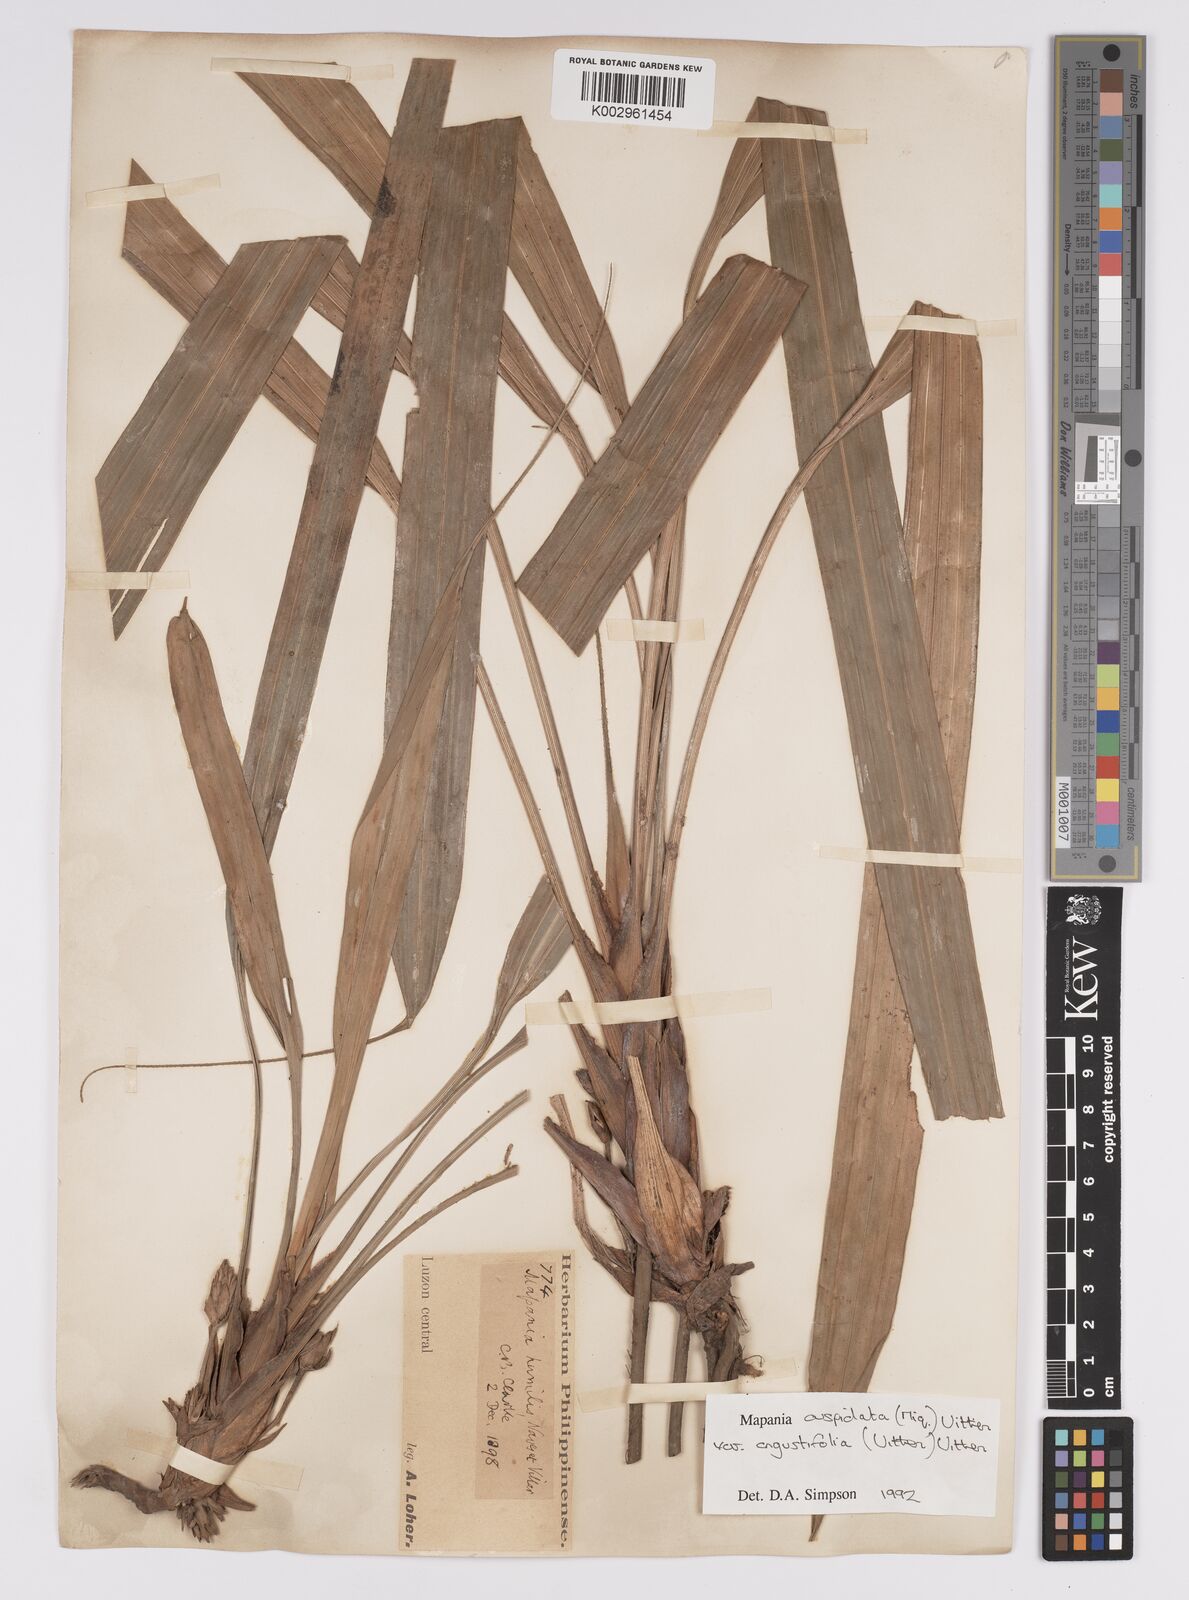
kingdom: Plantae
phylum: Tracheophyta
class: Liliopsida
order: Poales
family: Cyperaceae
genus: Mapania
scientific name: Mapania cuspidata
